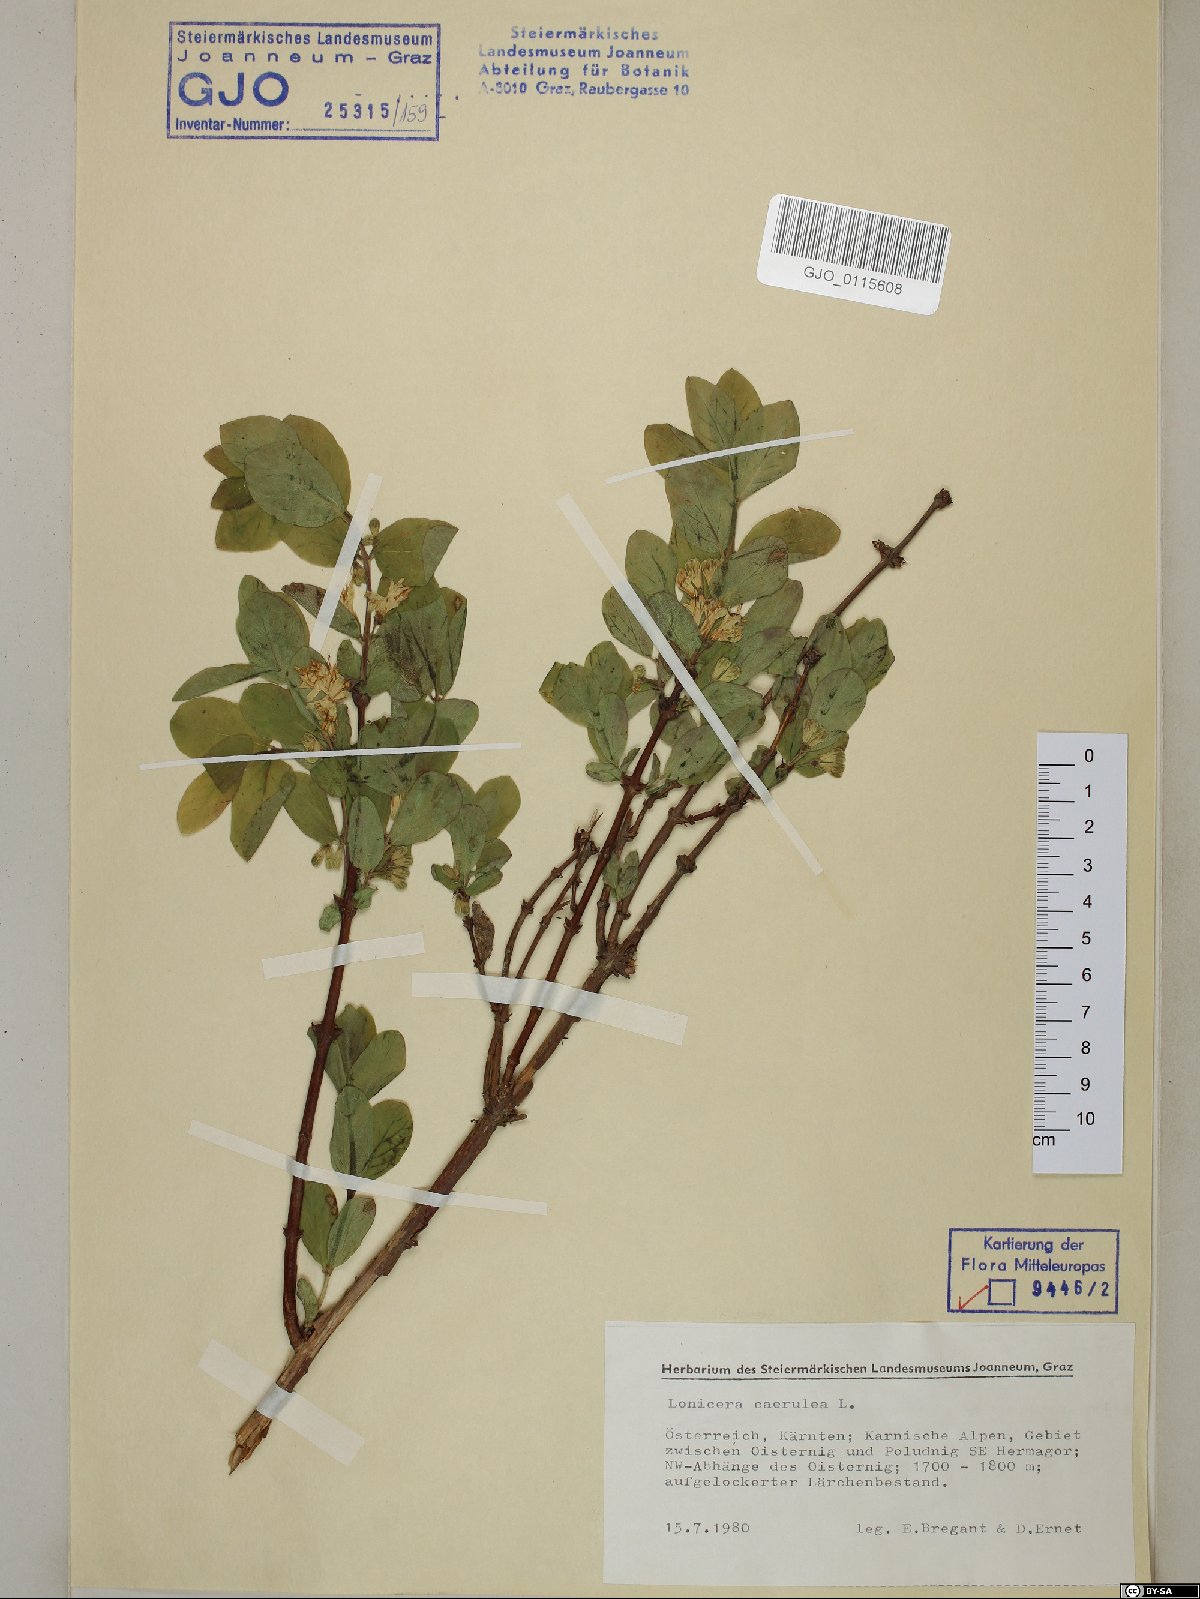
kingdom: Plantae
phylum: Tracheophyta
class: Magnoliopsida
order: Dipsacales
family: Caprifoliaceae
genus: Lonicera
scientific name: Lonicera caerulea
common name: Blue honeysuckle
